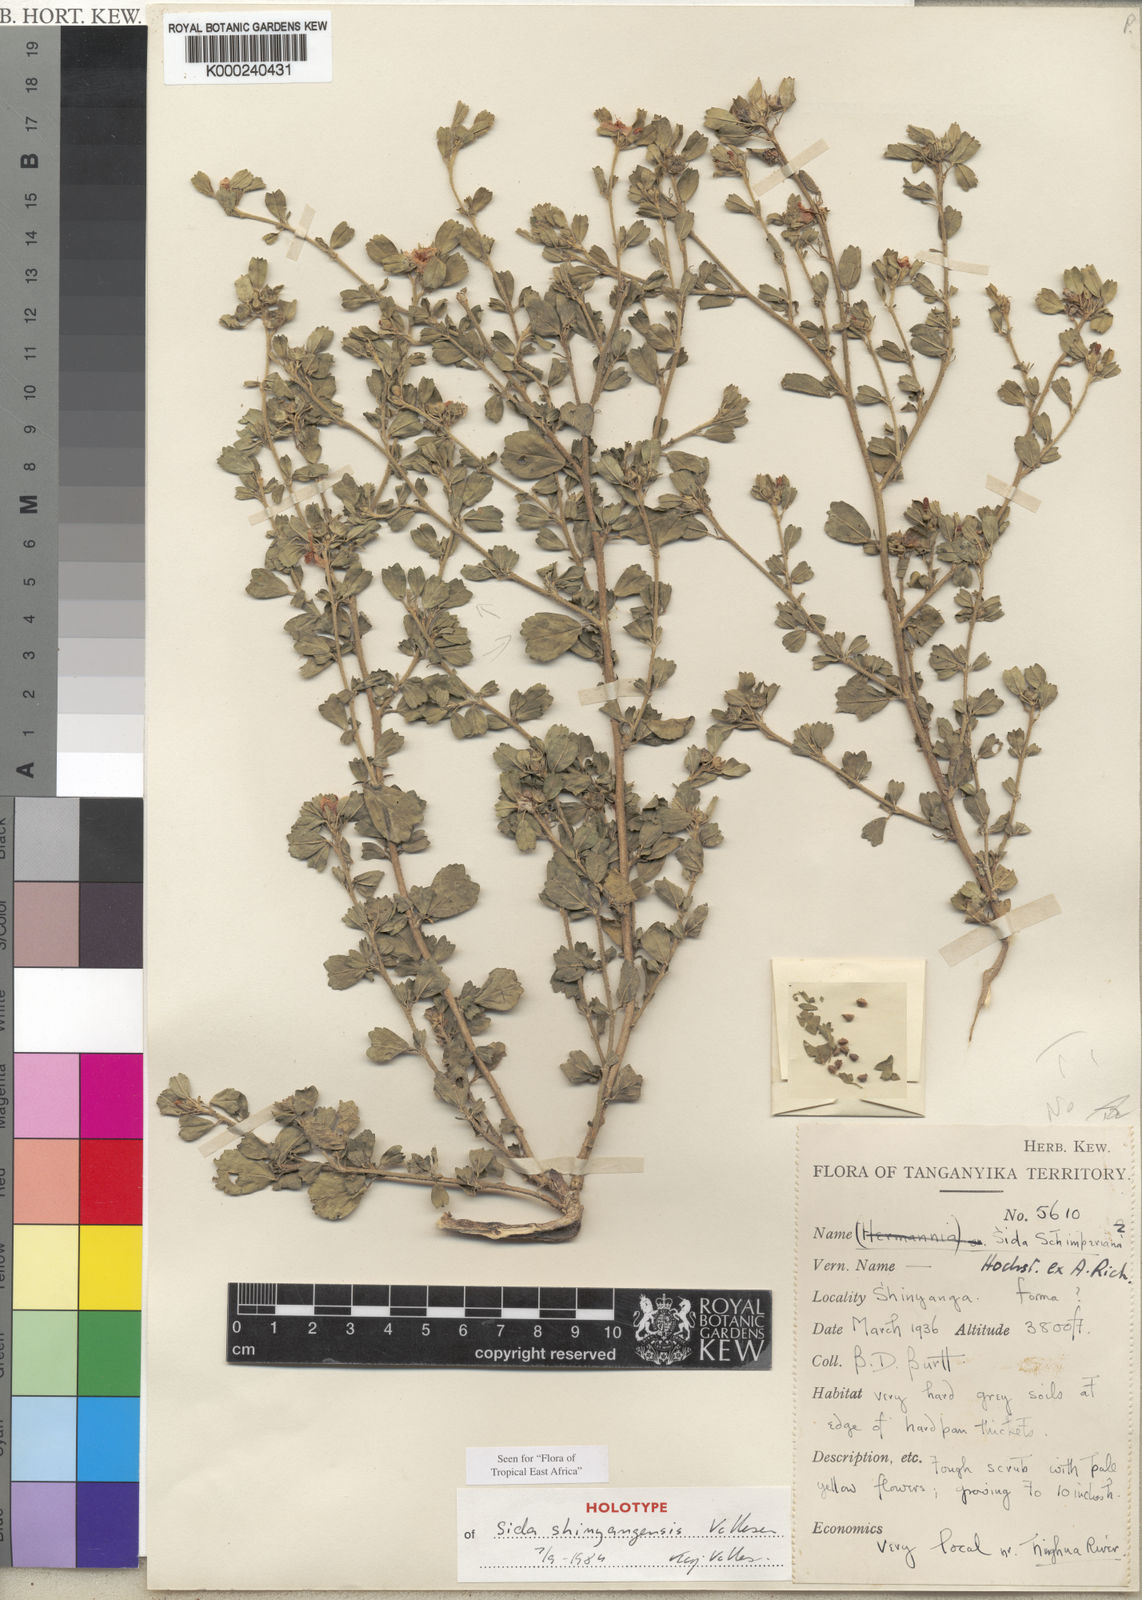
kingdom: Plantae
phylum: Tracheophyta
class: Magnoliopsida
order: Malvales
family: Malvaceae
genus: Sida
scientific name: Sida shinyangensis
